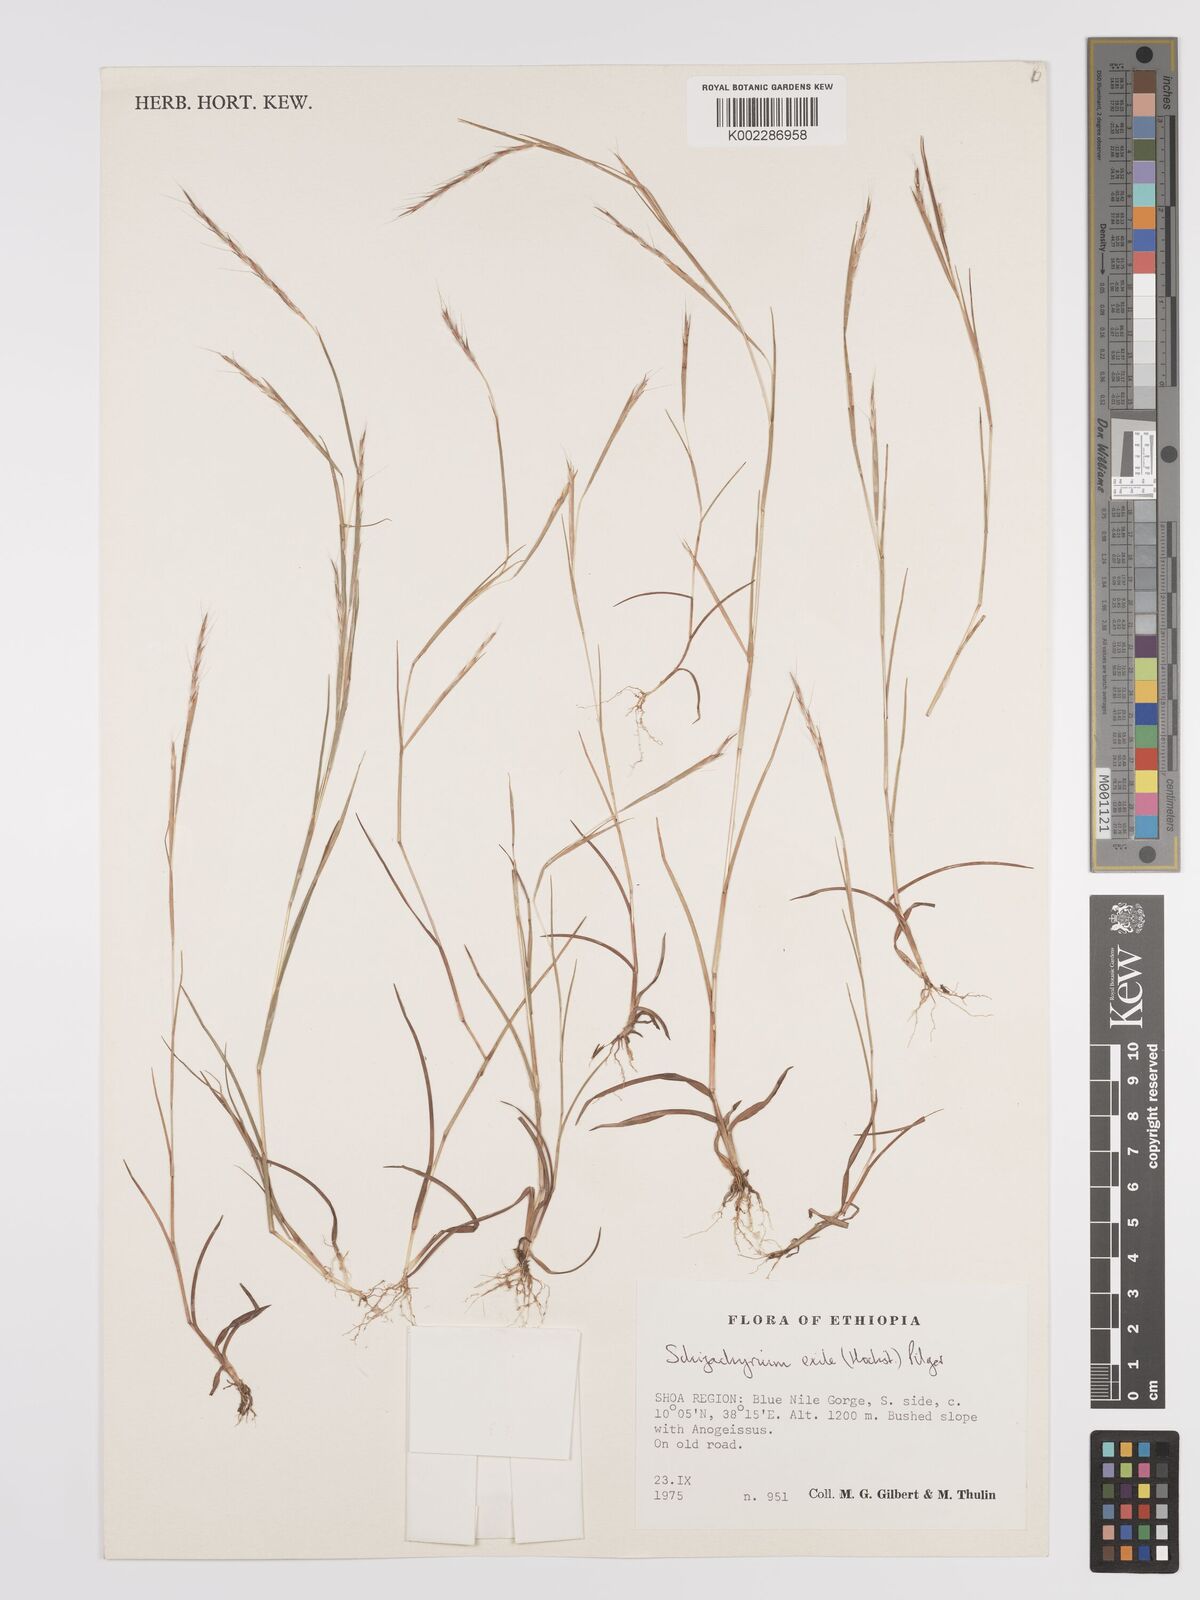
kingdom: Plantae
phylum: Tracheophyta
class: Liliopsida
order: Poales
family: Poaceae
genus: Schizachyrium
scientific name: Schizachyrium exile
